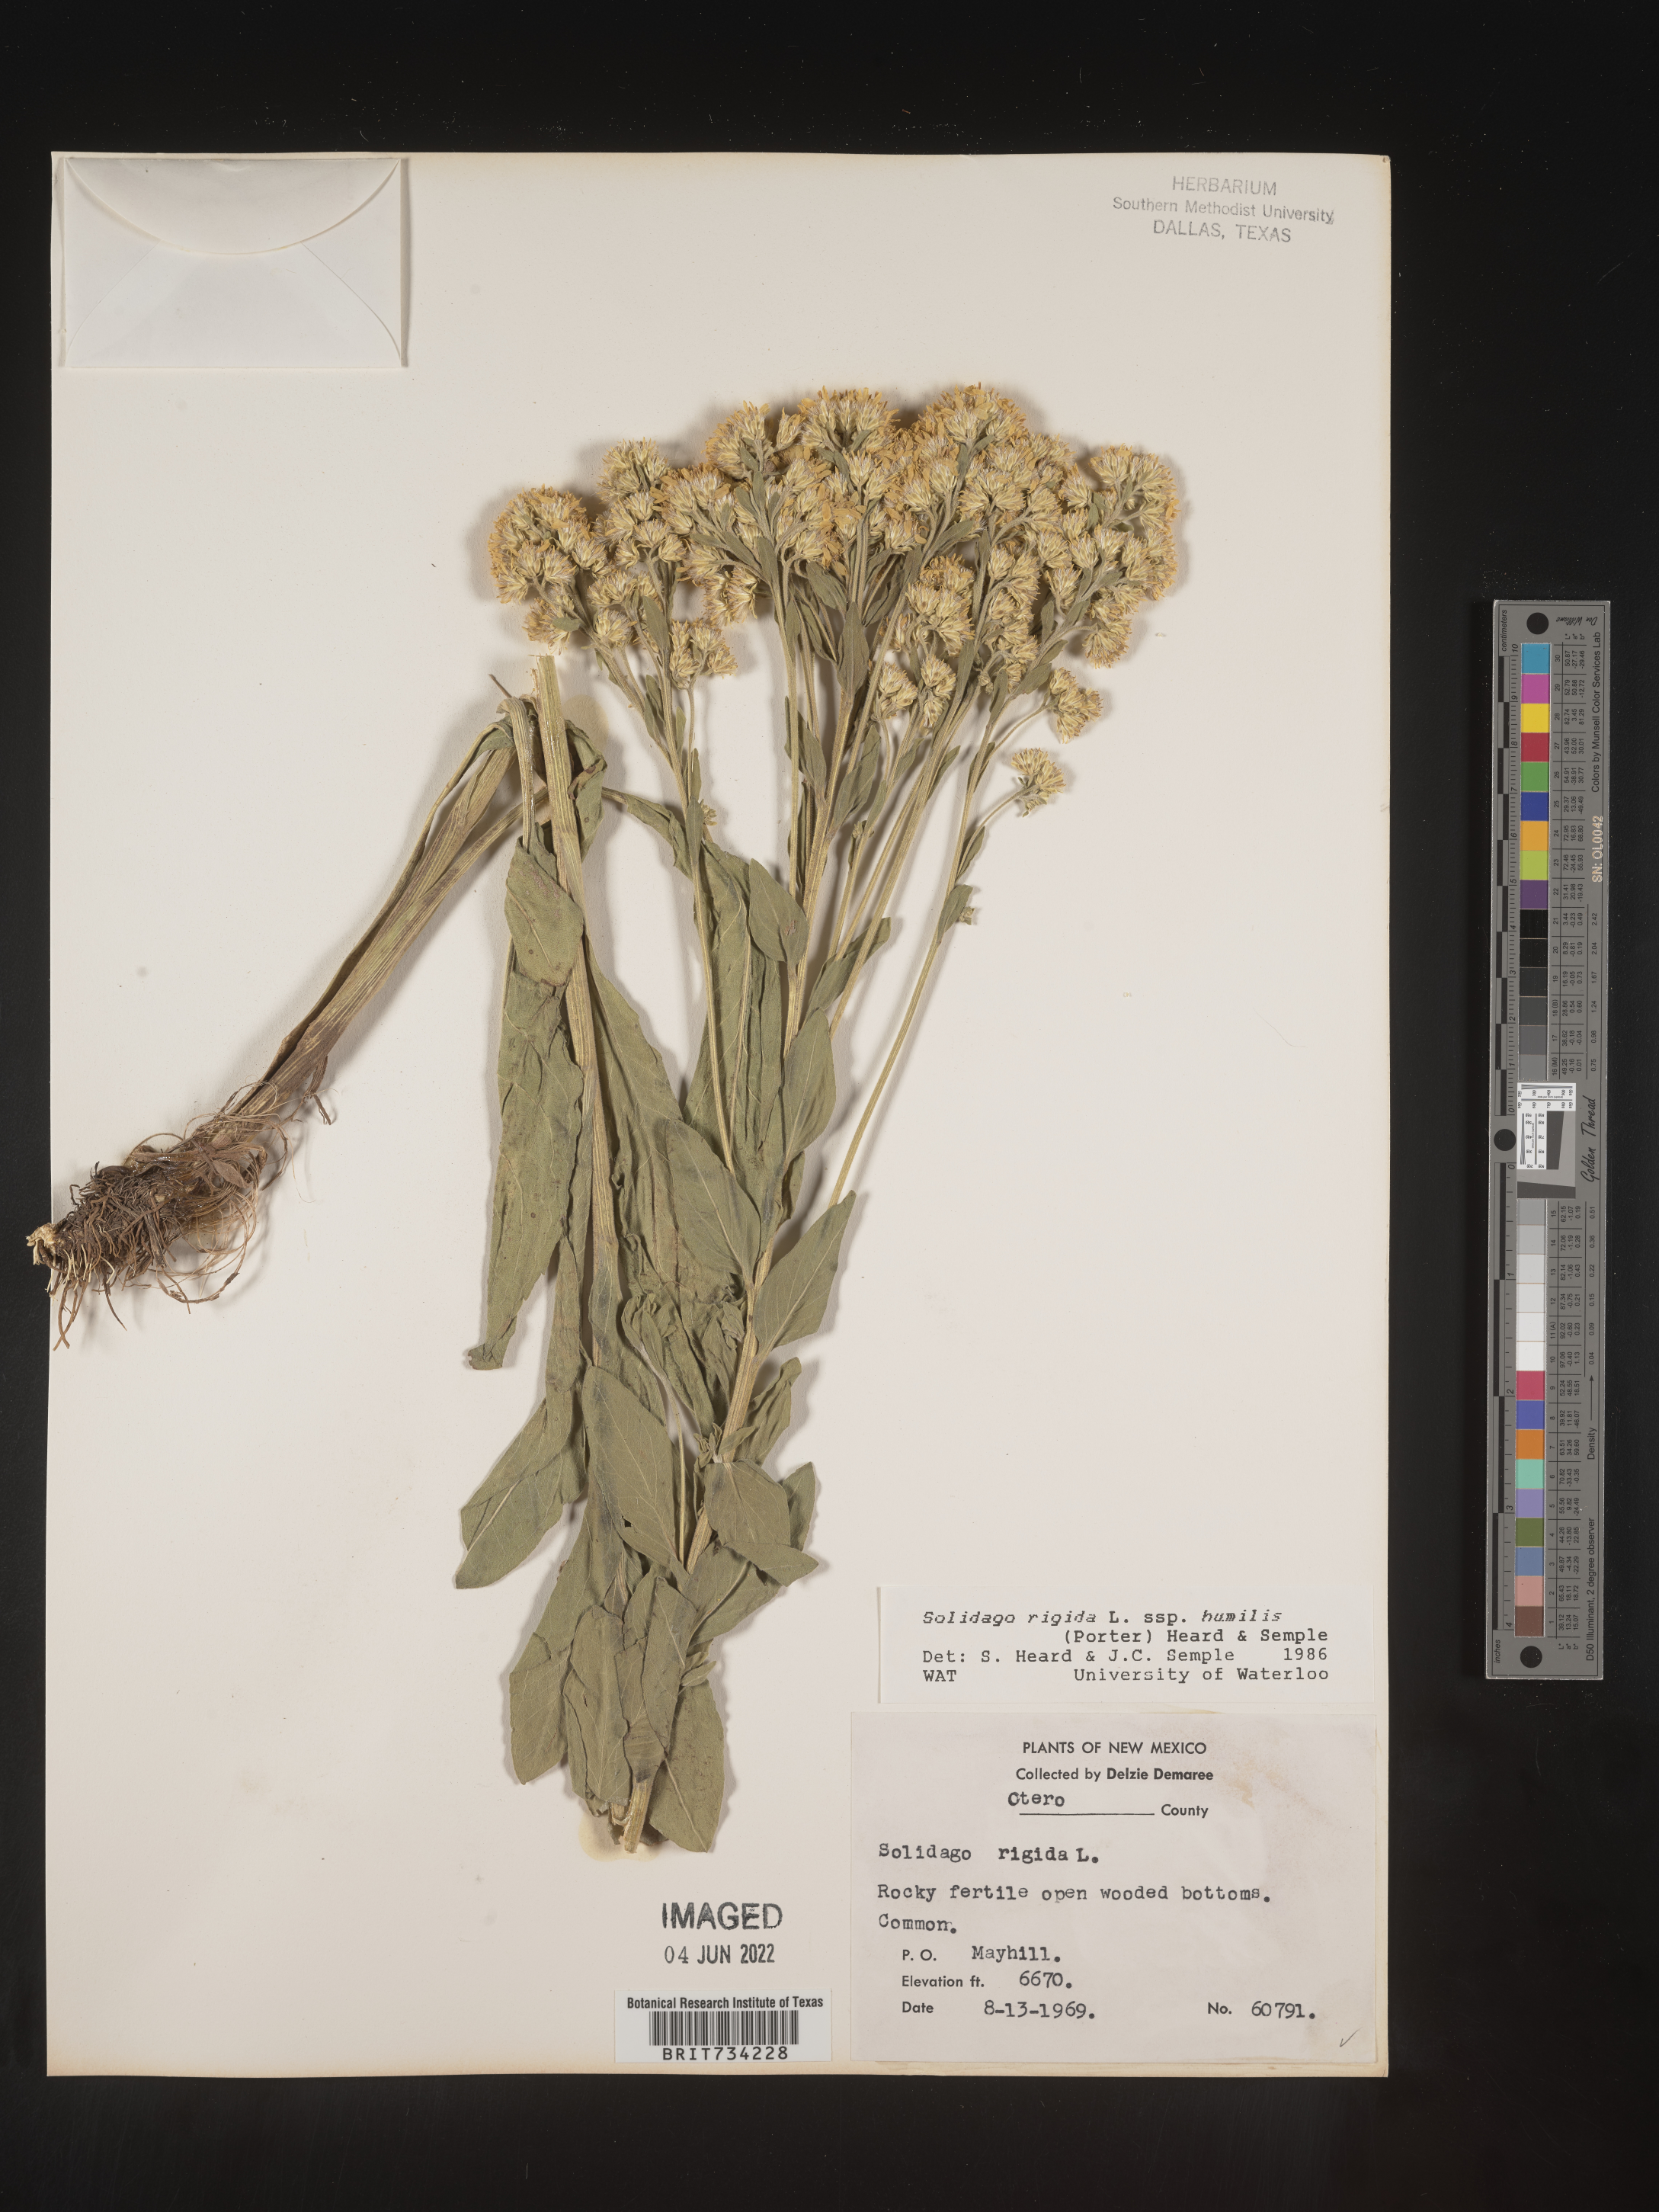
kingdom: Plantae
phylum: Tracheophyta
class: Magnoliopsida
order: Asterales
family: Asteraceae
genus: Solidago
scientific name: Solidago rigida
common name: Rigid goldenrod
